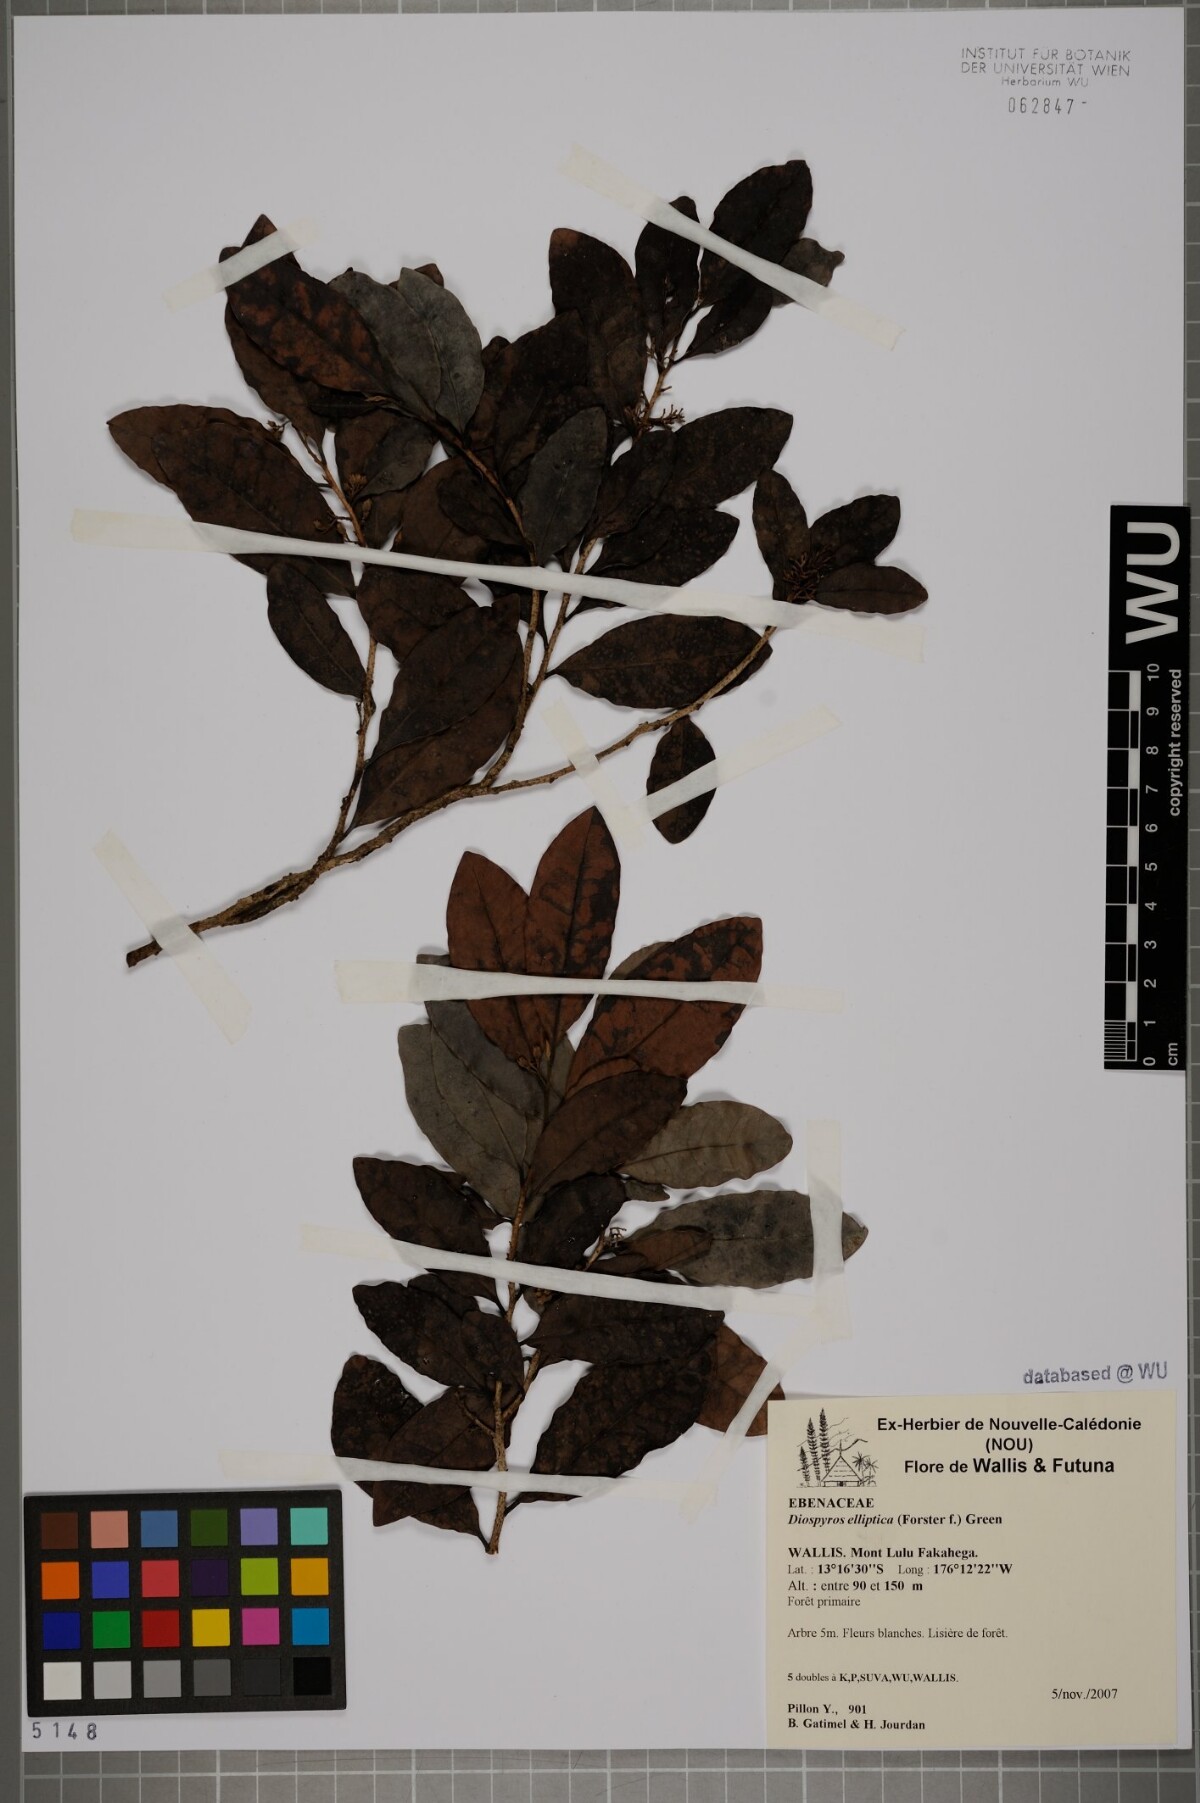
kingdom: Plantae
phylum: Tracheophyta
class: Magnoliopsida
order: Ericales
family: Ebenaceae
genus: Diospyros
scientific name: Diospyros foliosa
